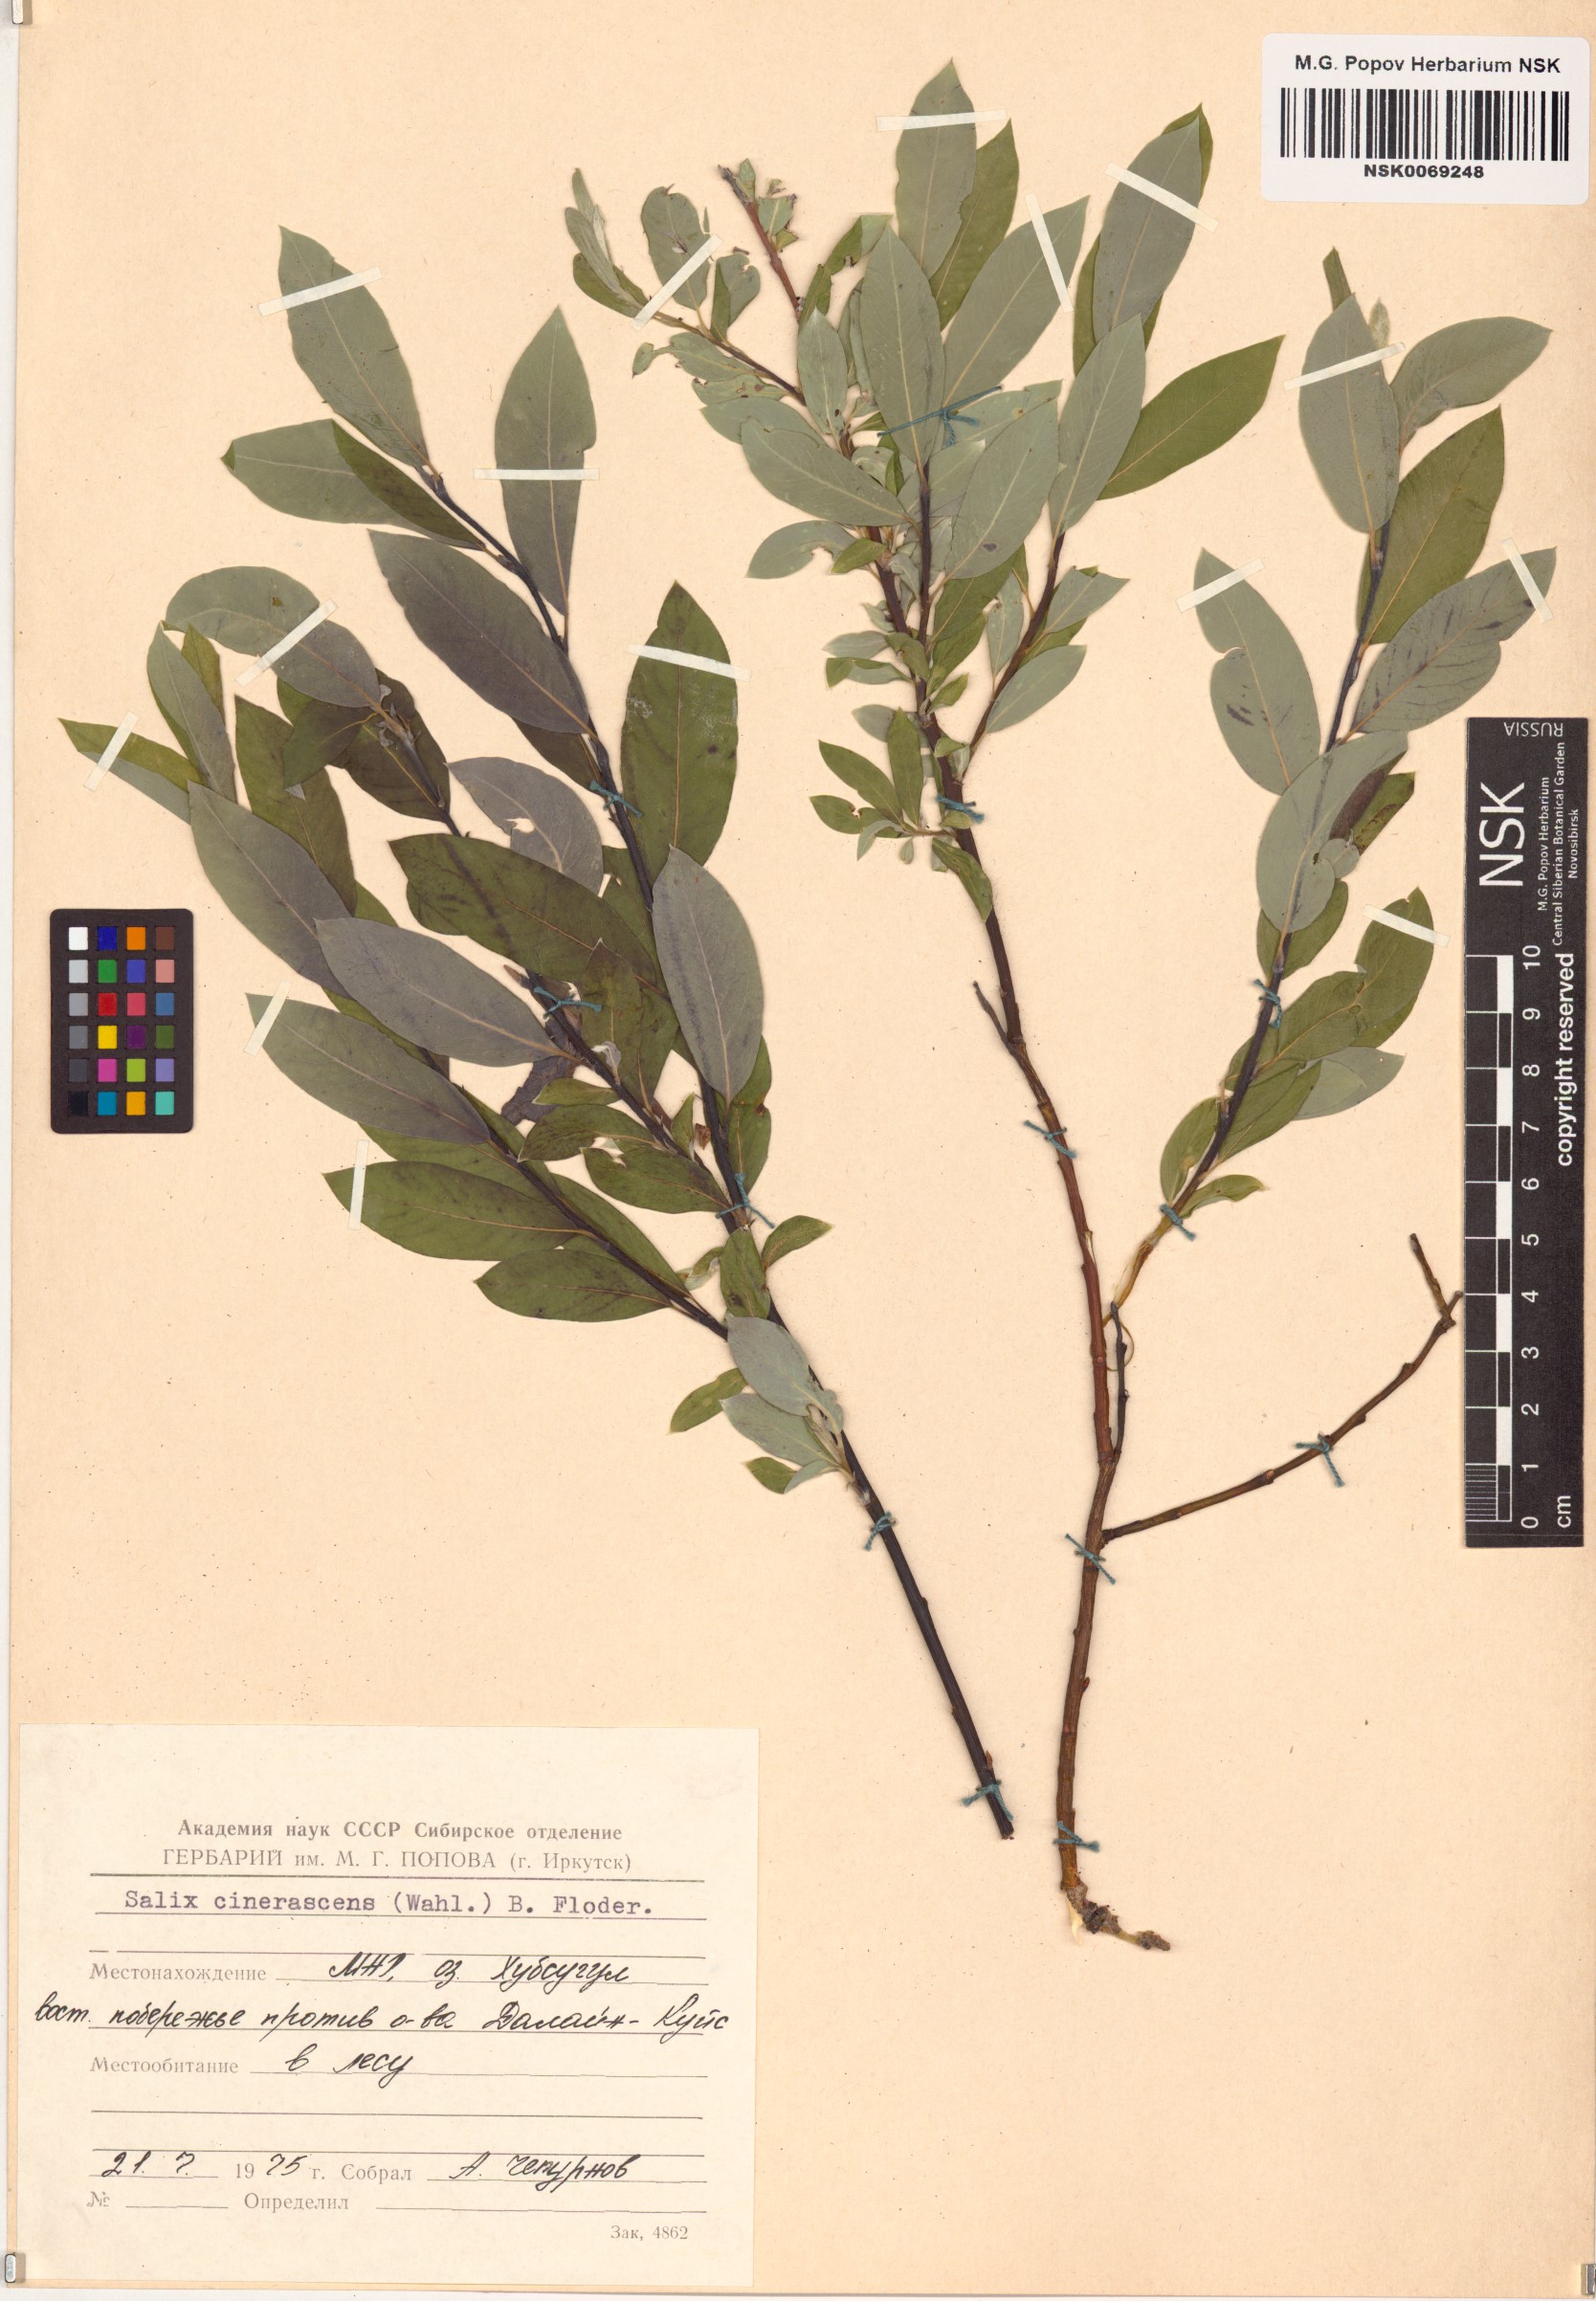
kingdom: Plantae
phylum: Tracheophyta
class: Magnoliopsida
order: Malpighiales
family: Salicaceae
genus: Salix
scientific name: Salix
